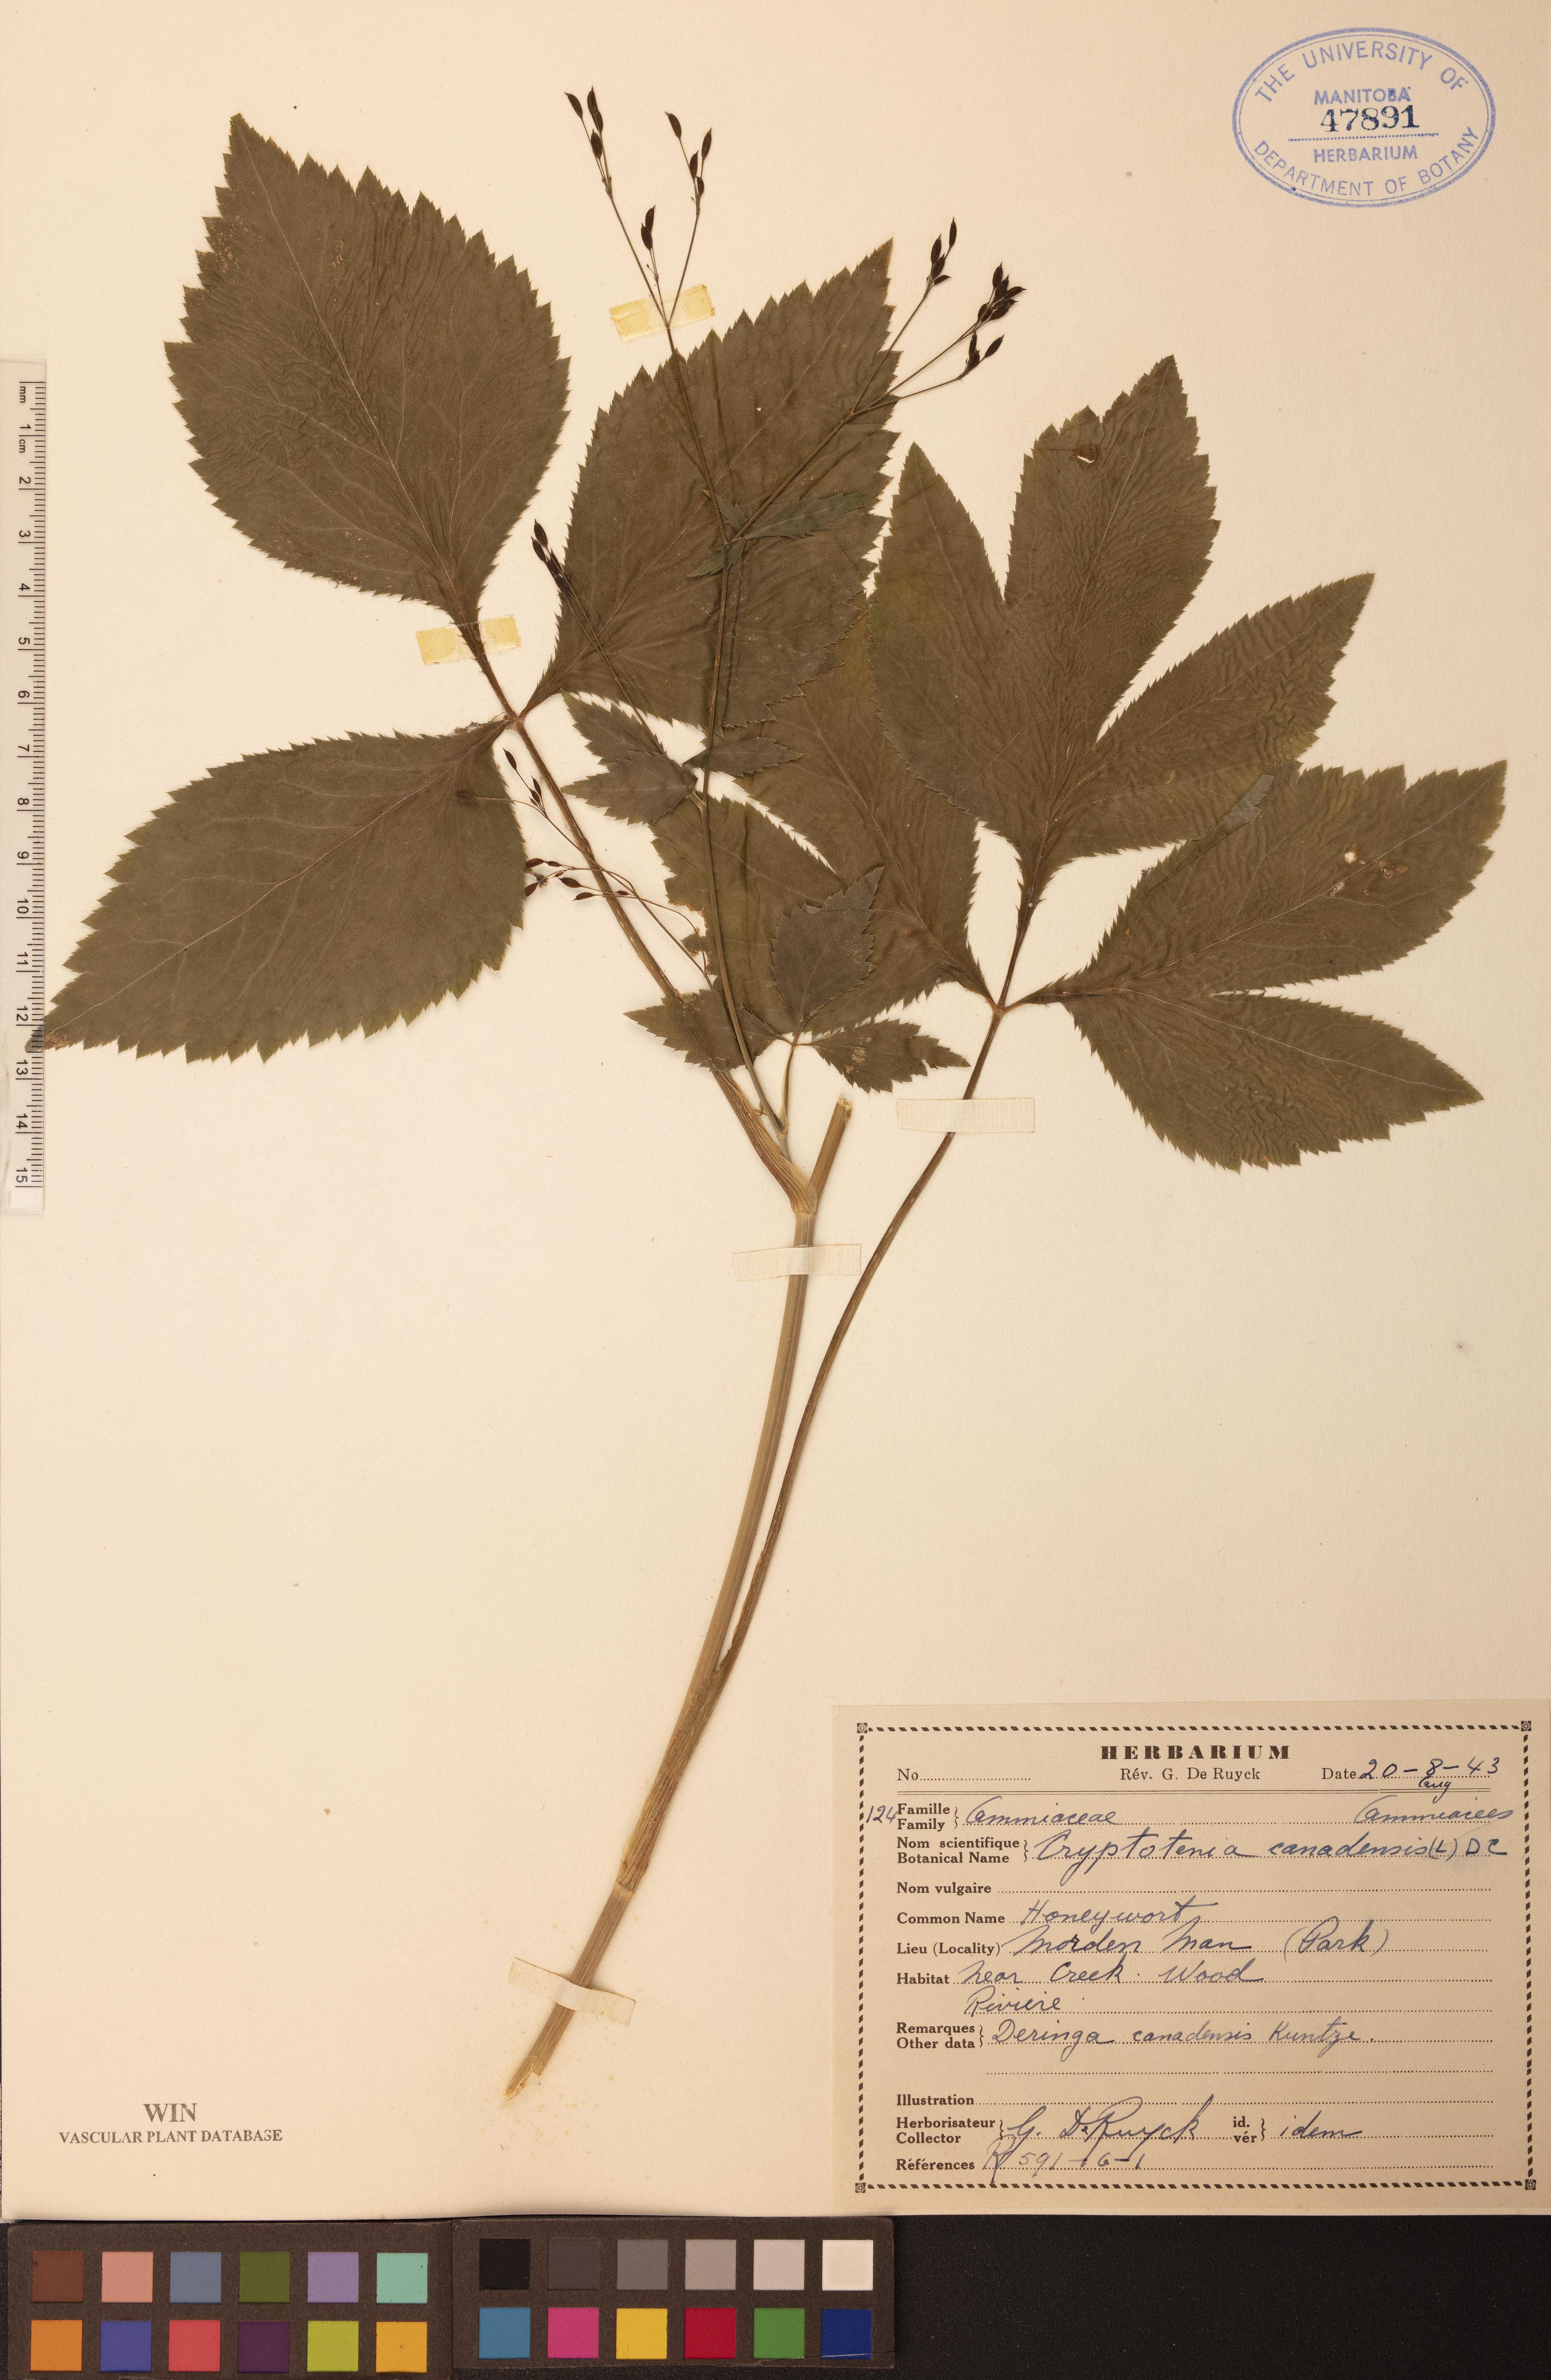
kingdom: Plantae
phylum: Tracheophyta
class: Magnoliopsida
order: Apiales
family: Apiaceae
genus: Cryptotaenia
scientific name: Cryptotaenia canadensis
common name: Honewort
